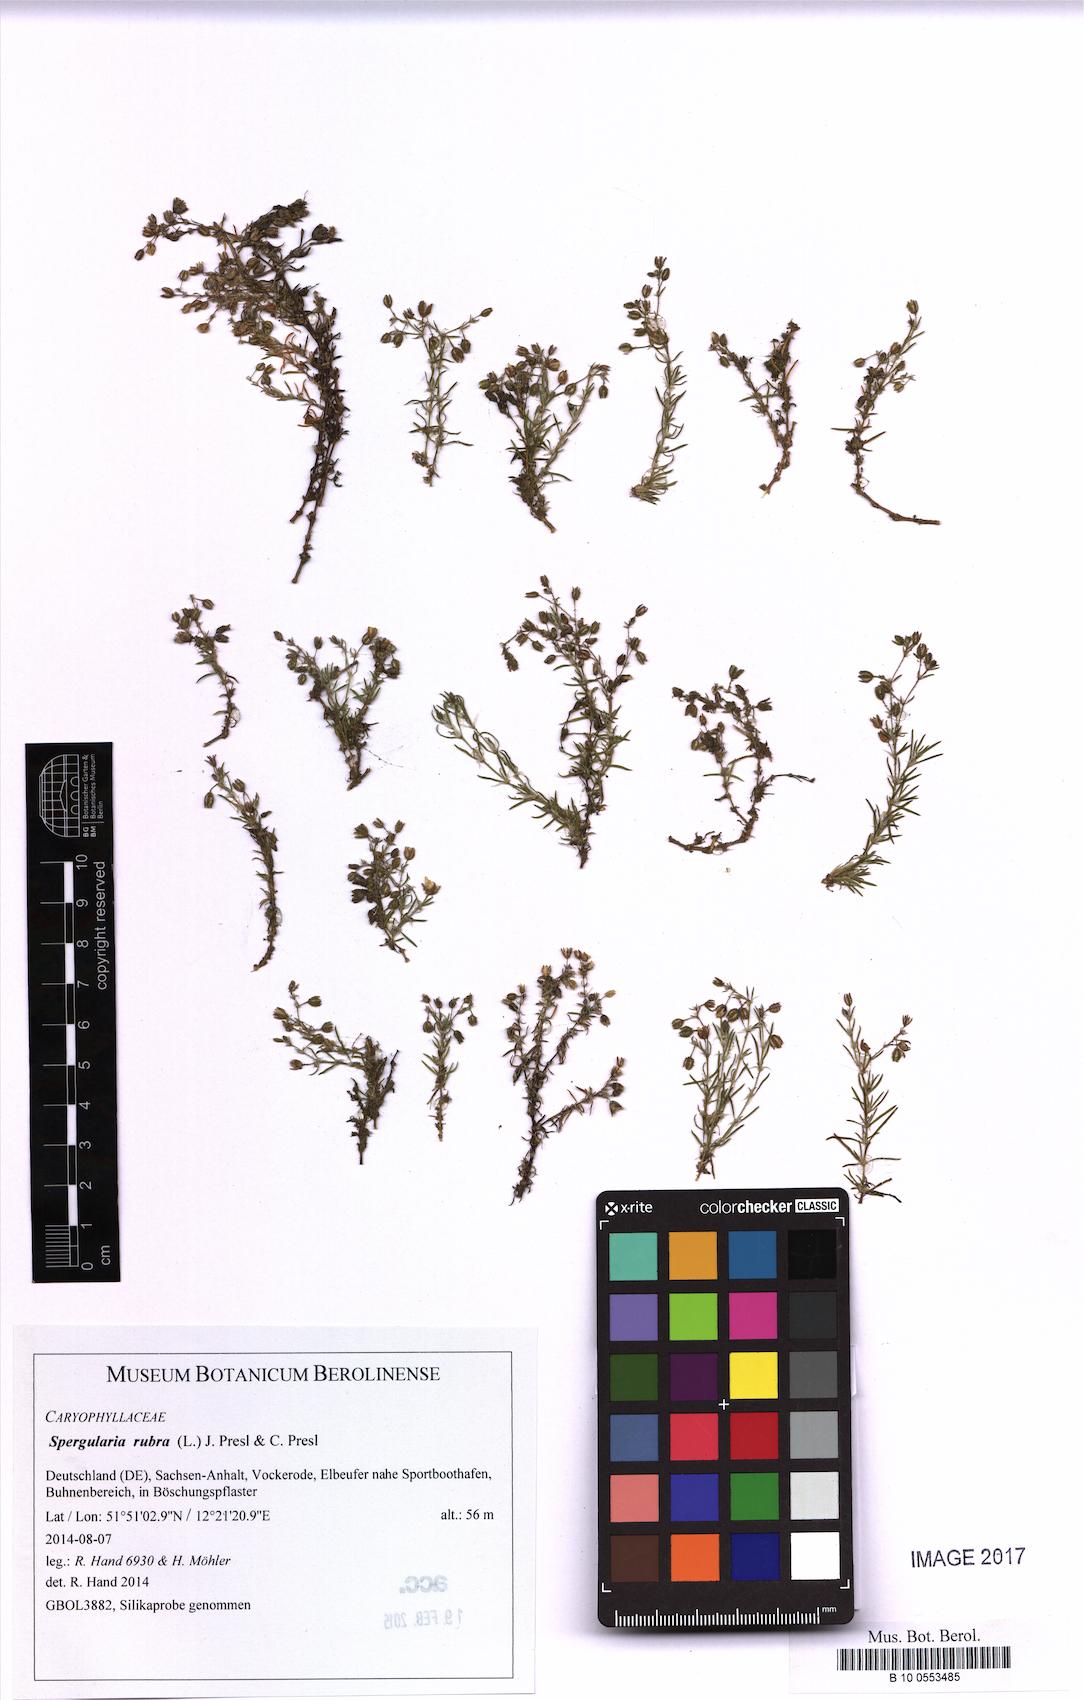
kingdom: Plantae
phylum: Tracheophyta
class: Magnoliopsida
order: Caryophyllales
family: Caryophyllaceae
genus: Spergularia
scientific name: Spergularia rubra
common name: Red sand-spurrey
